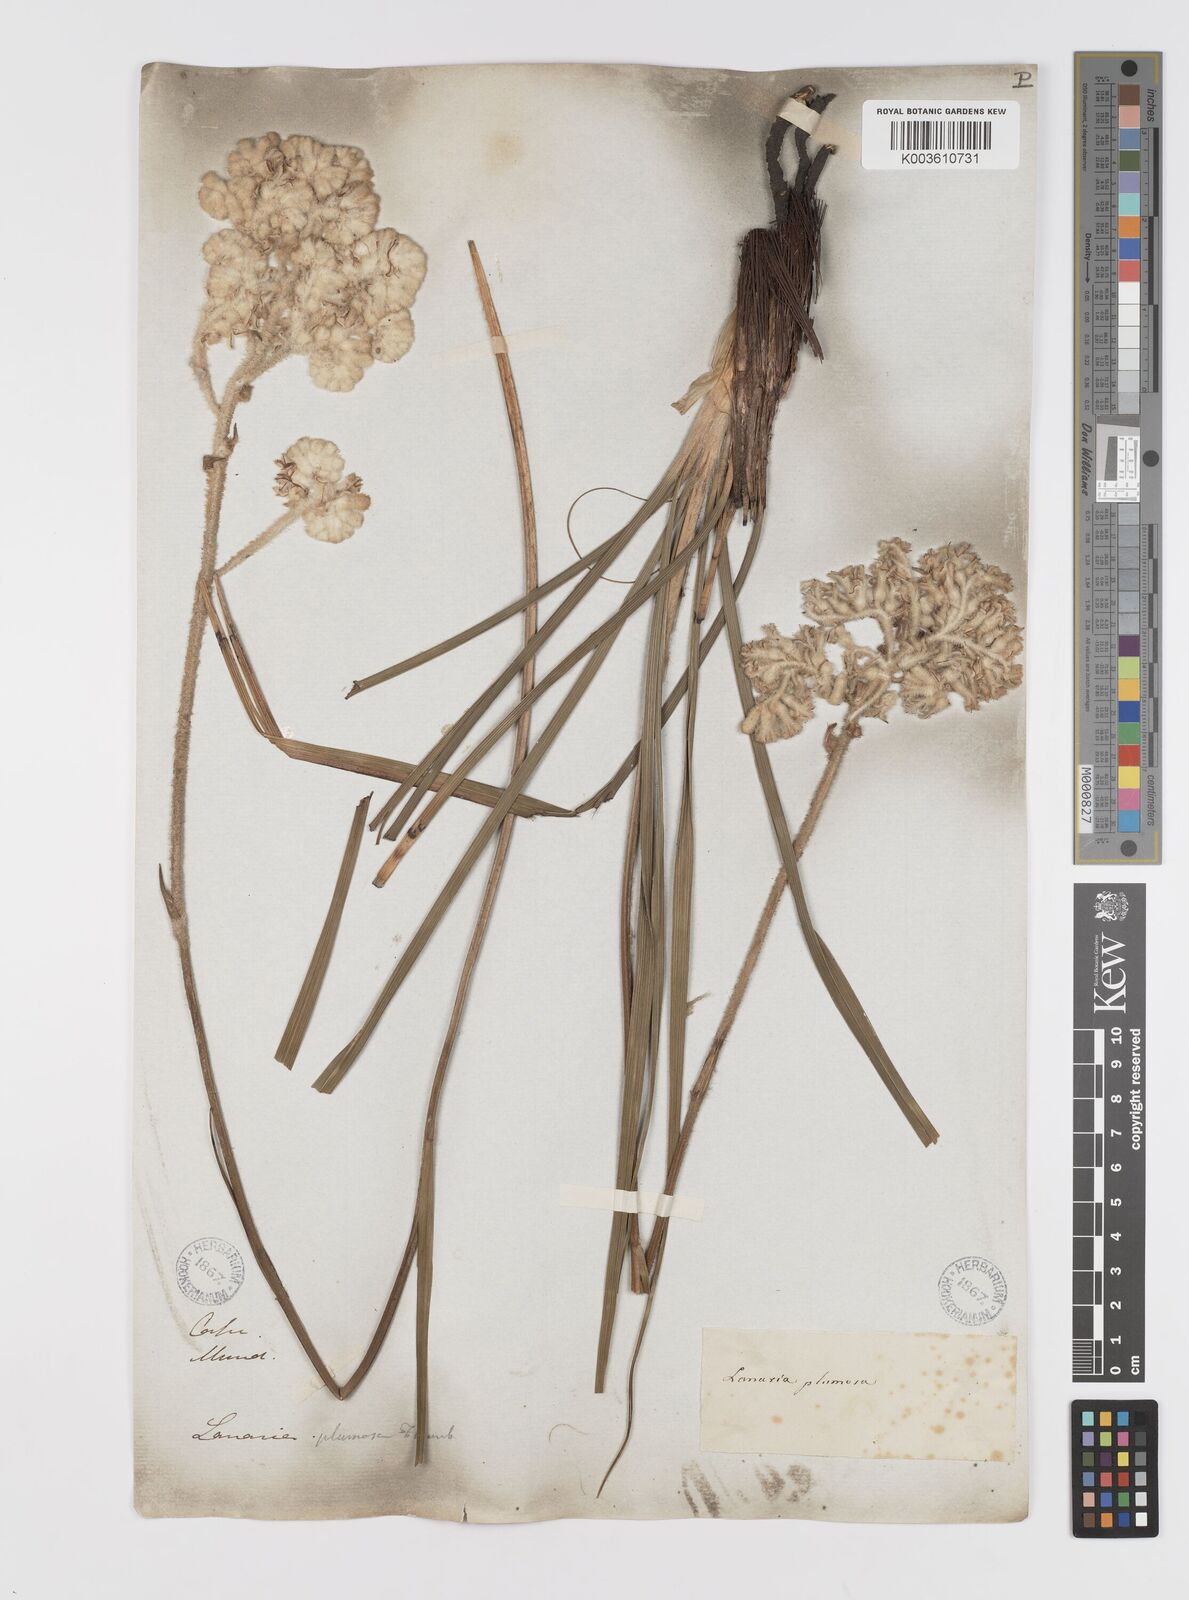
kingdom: Plantae
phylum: Tracheophyta
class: Liliopsida
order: Asparagales
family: Lanariaceae
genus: Lanaria
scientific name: Lanaria lanata
